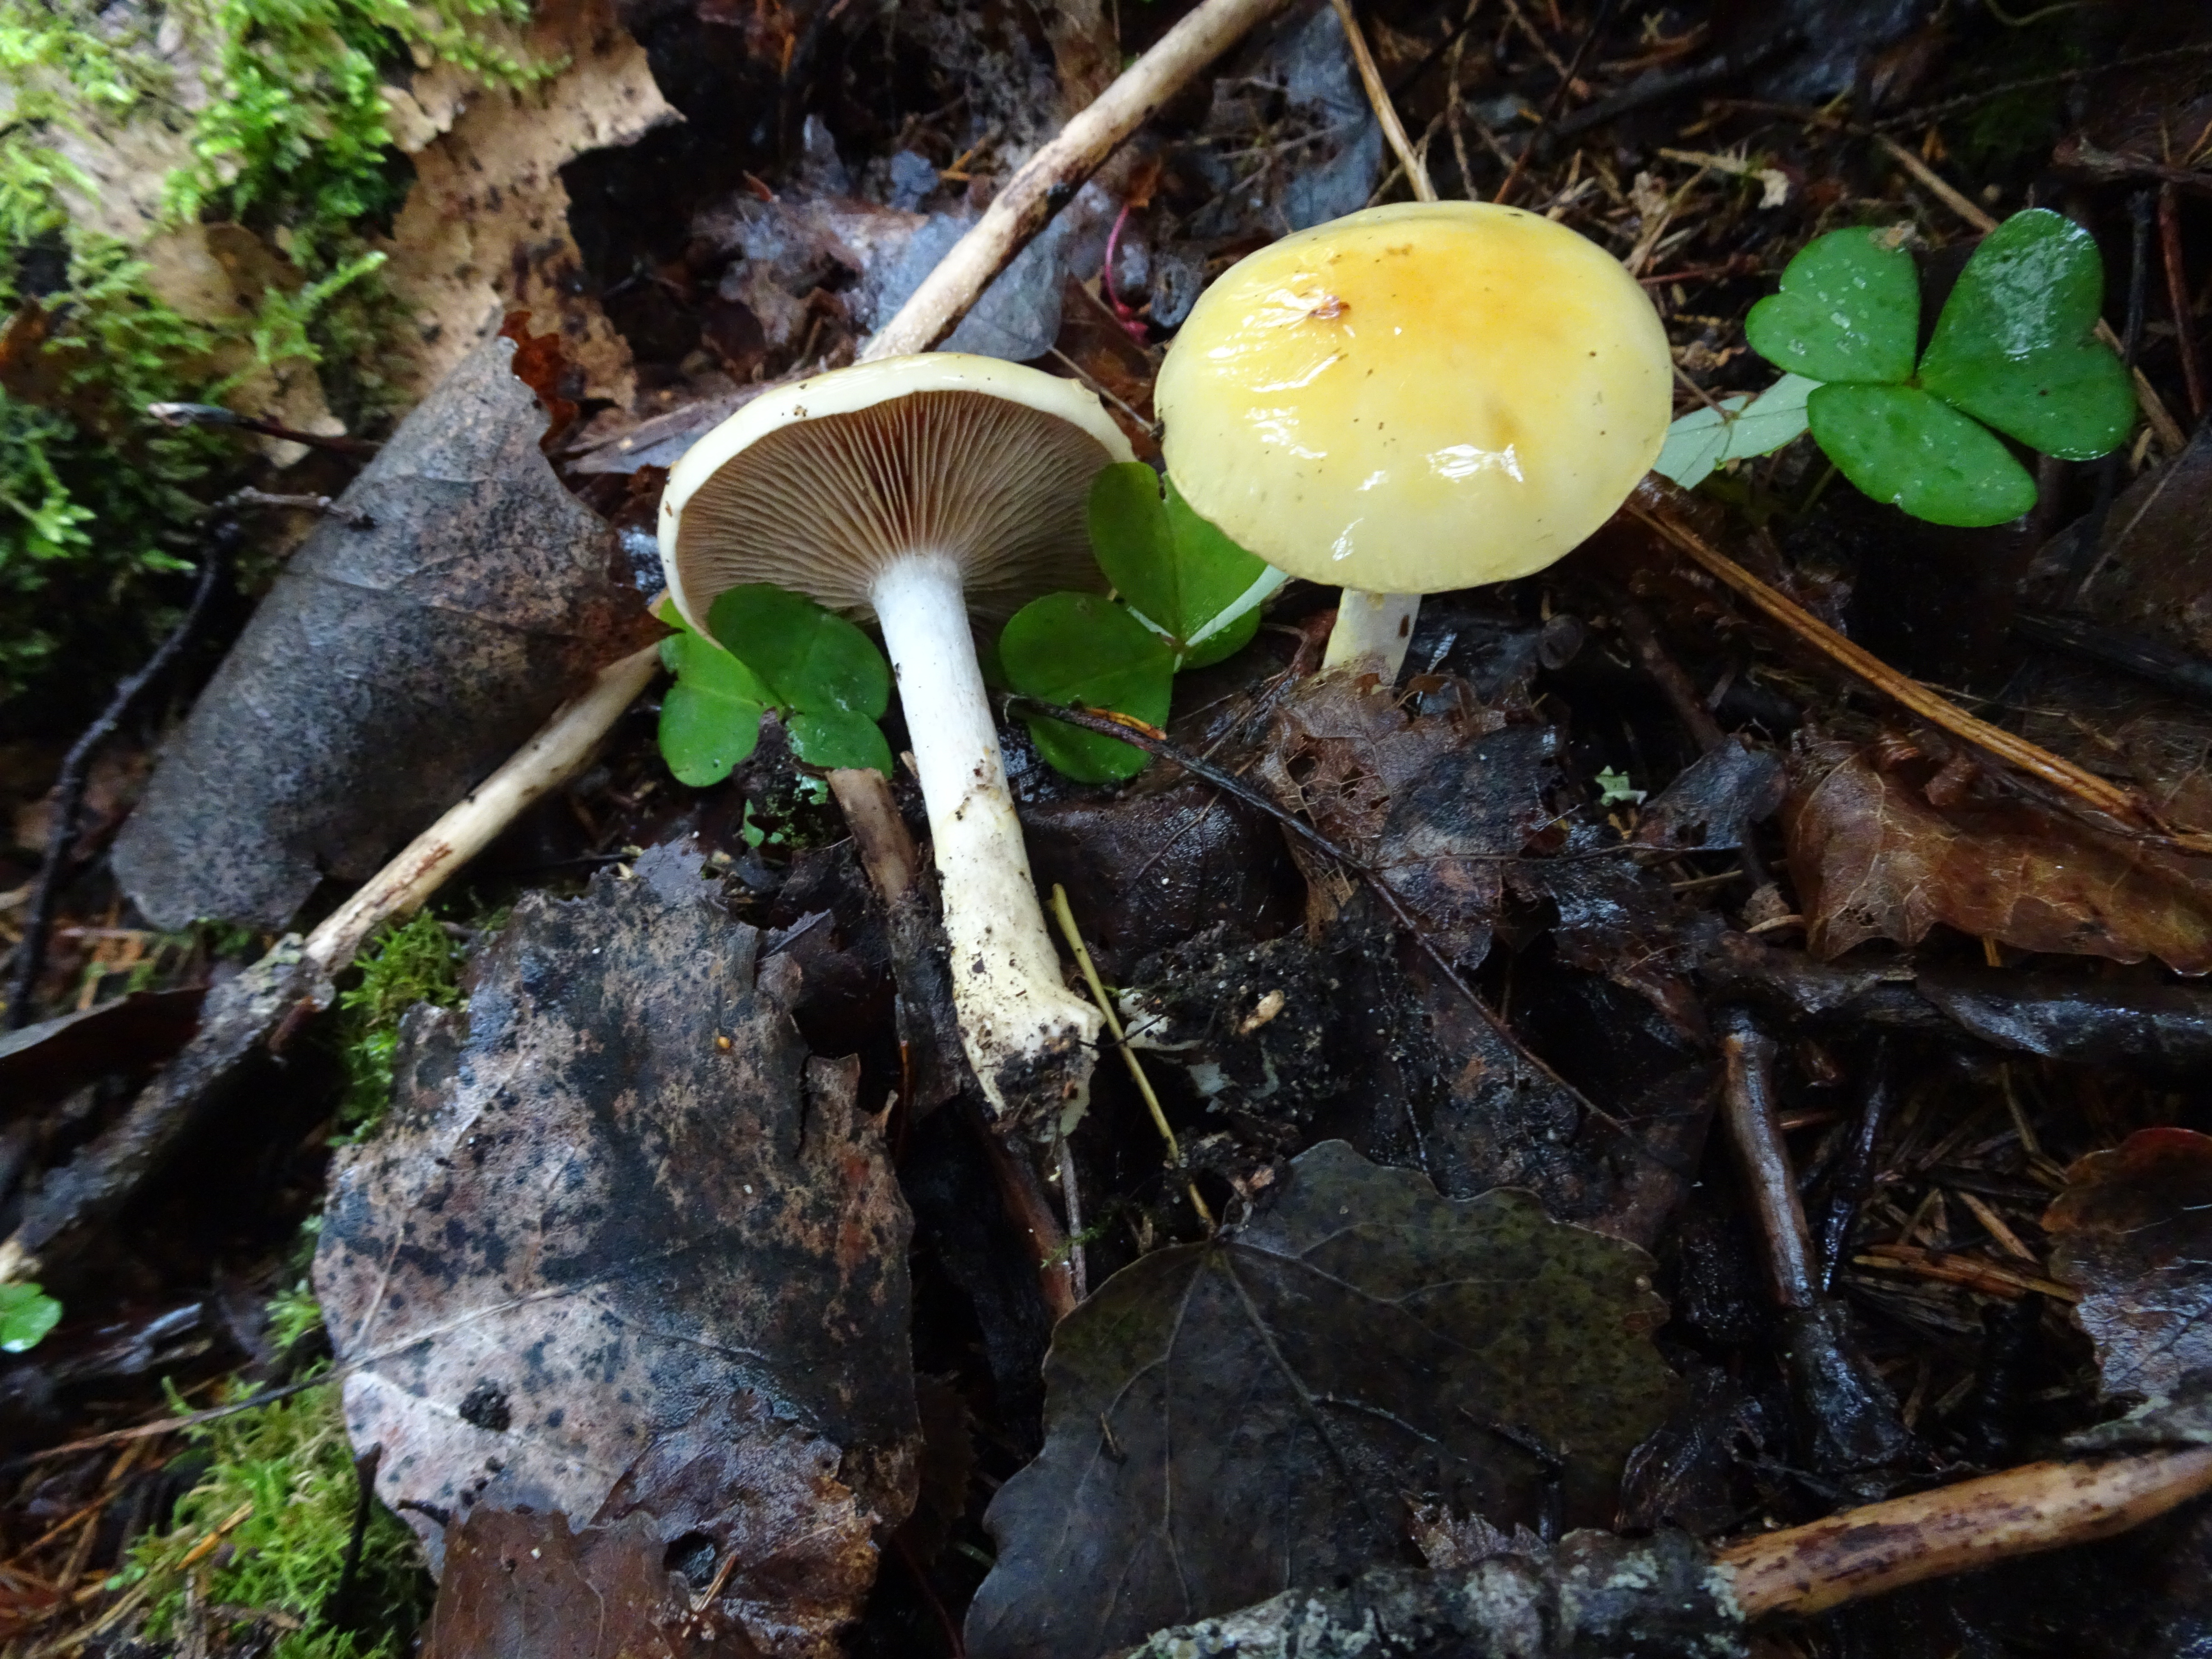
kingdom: Fungi
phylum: Basidiomycota
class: Agaricomycetes
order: Agaricales
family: Cortinariaceae
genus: Cortinarius
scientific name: Cortinarius delibutus
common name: Yellow webcap
